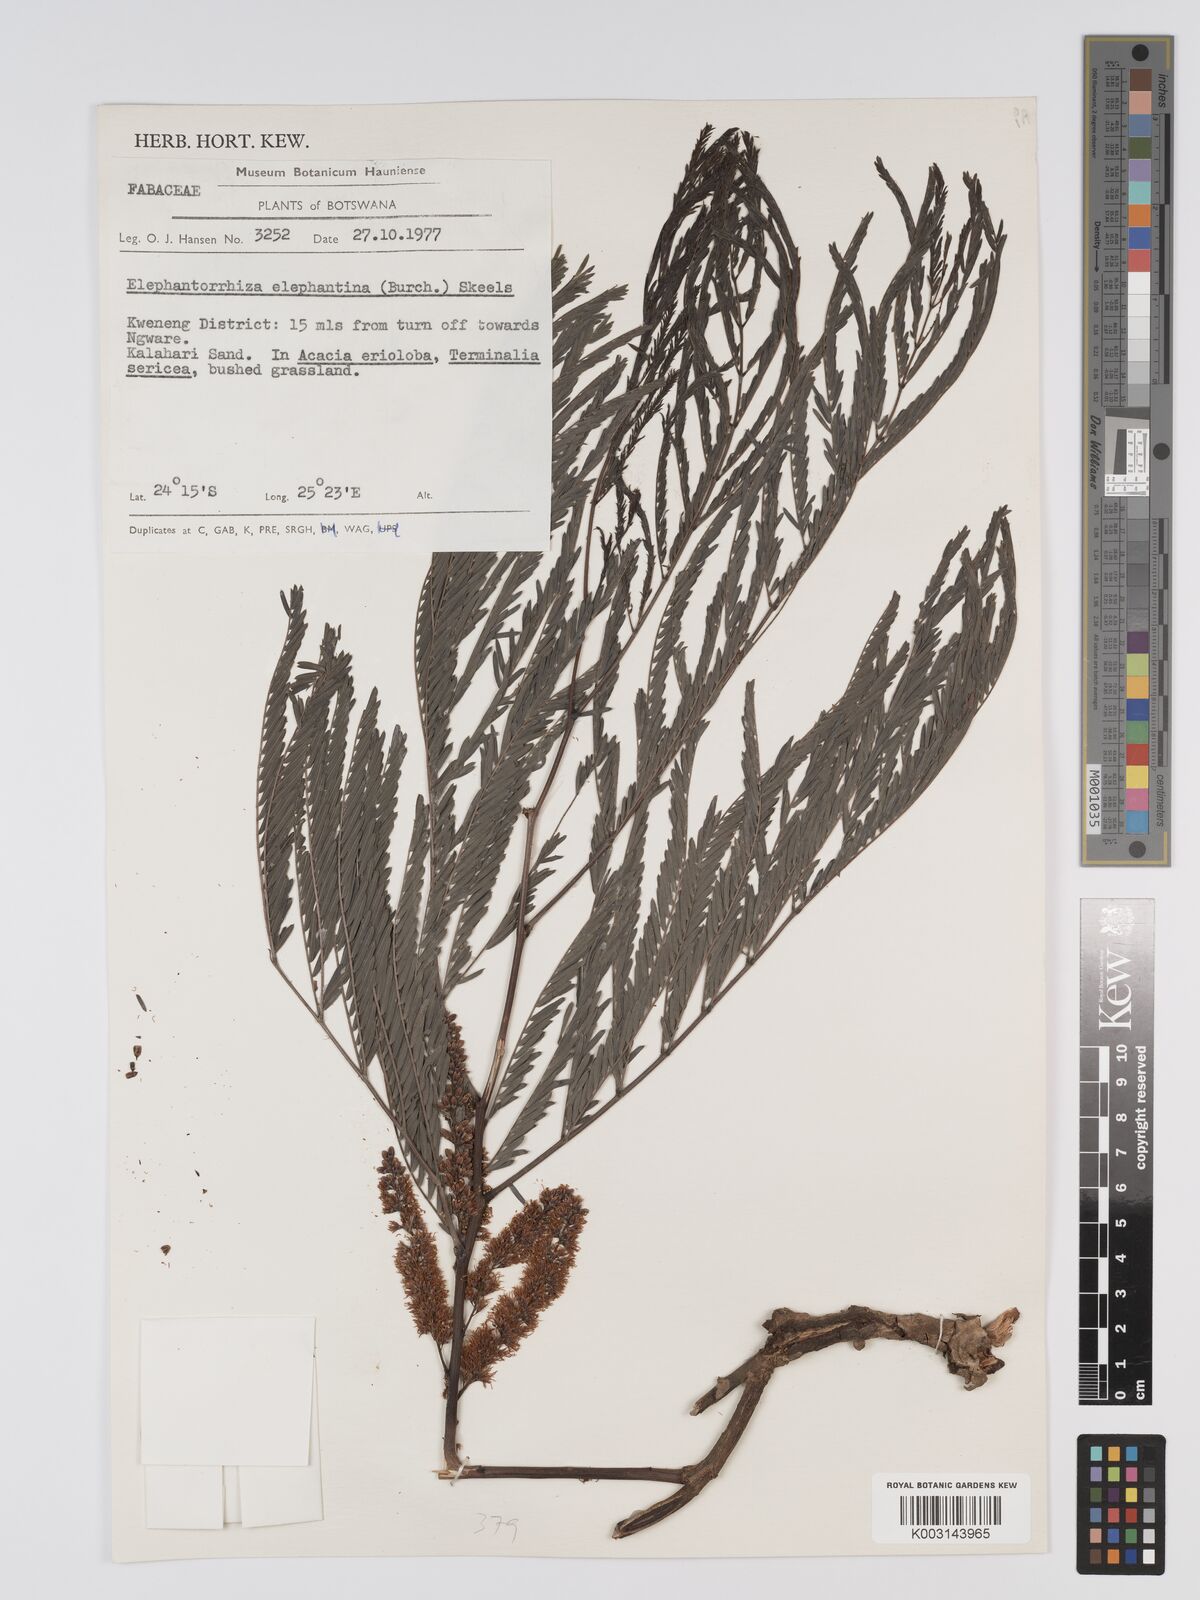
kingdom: Plantae
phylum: Tracheophyta
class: Magnoliopsida
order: Fabales
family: Fabaceae
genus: Elephantorrhiza
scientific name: Elephantorrhiza elephantina
